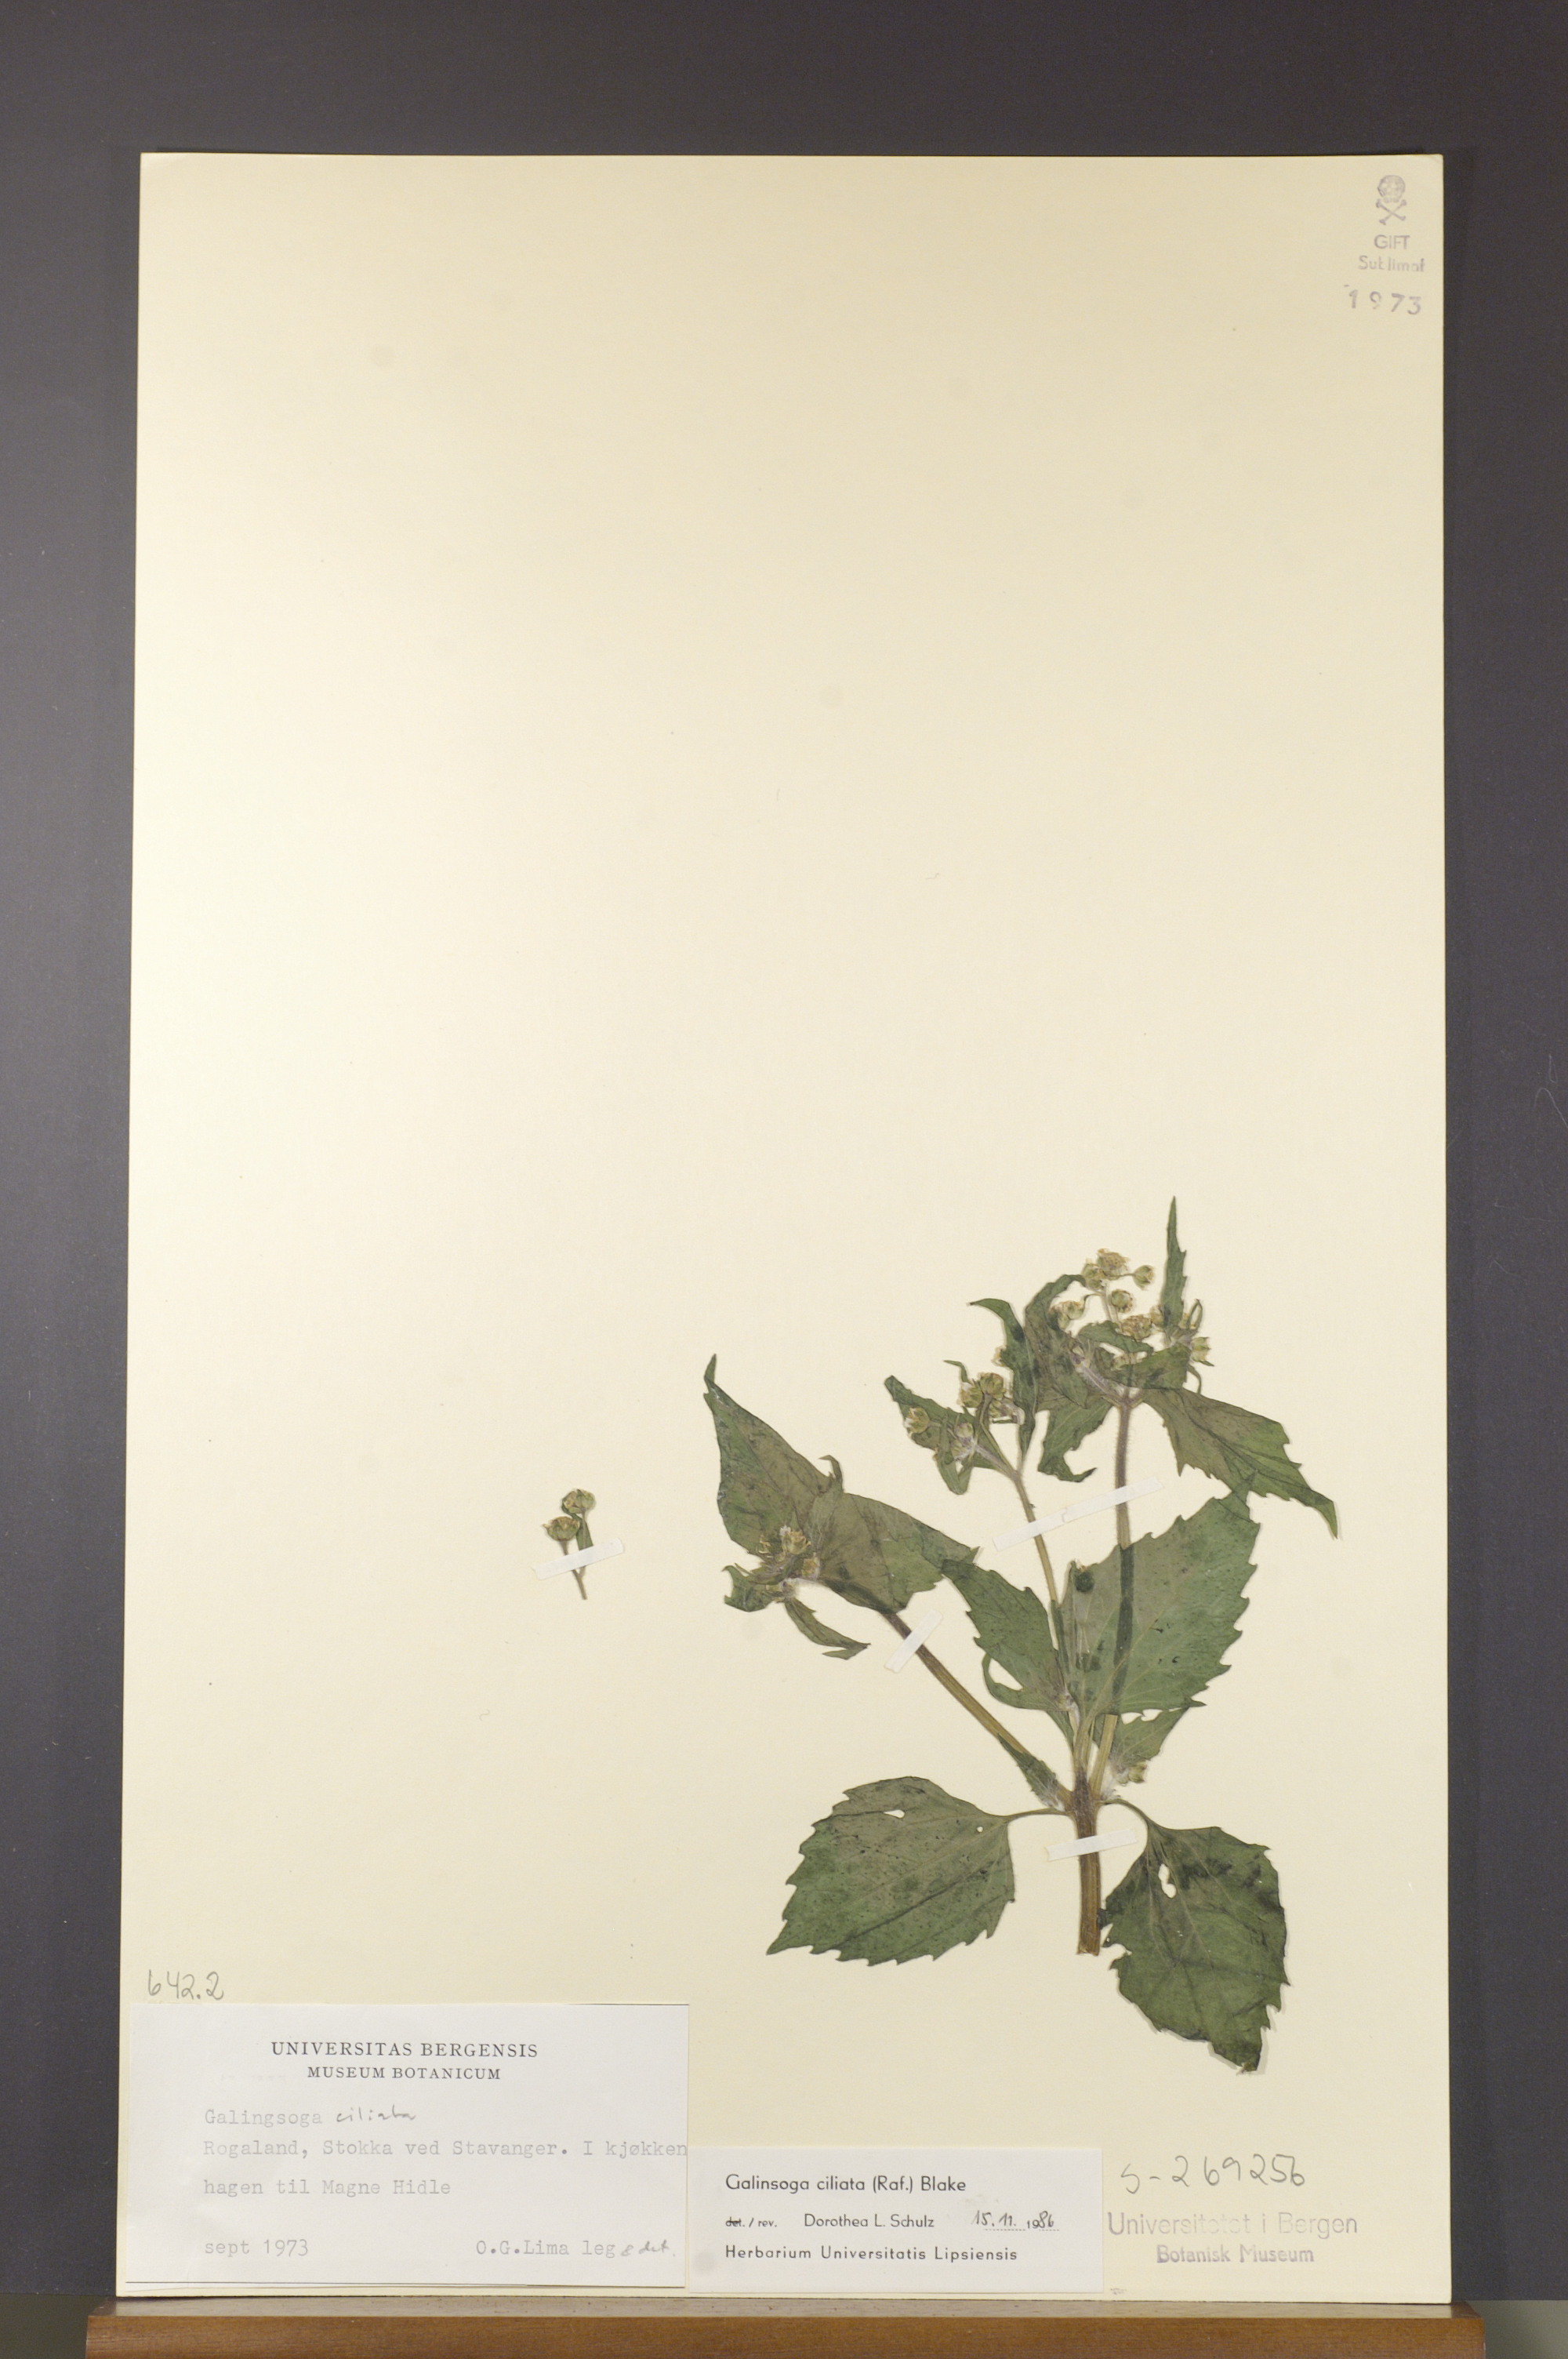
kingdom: Plantae
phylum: Tracheophyta
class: Magnoliopsida
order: Asterales
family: Asteraceae
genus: Galinsoga
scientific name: Galinsoga quadriradiata
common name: Shaggy soldier
